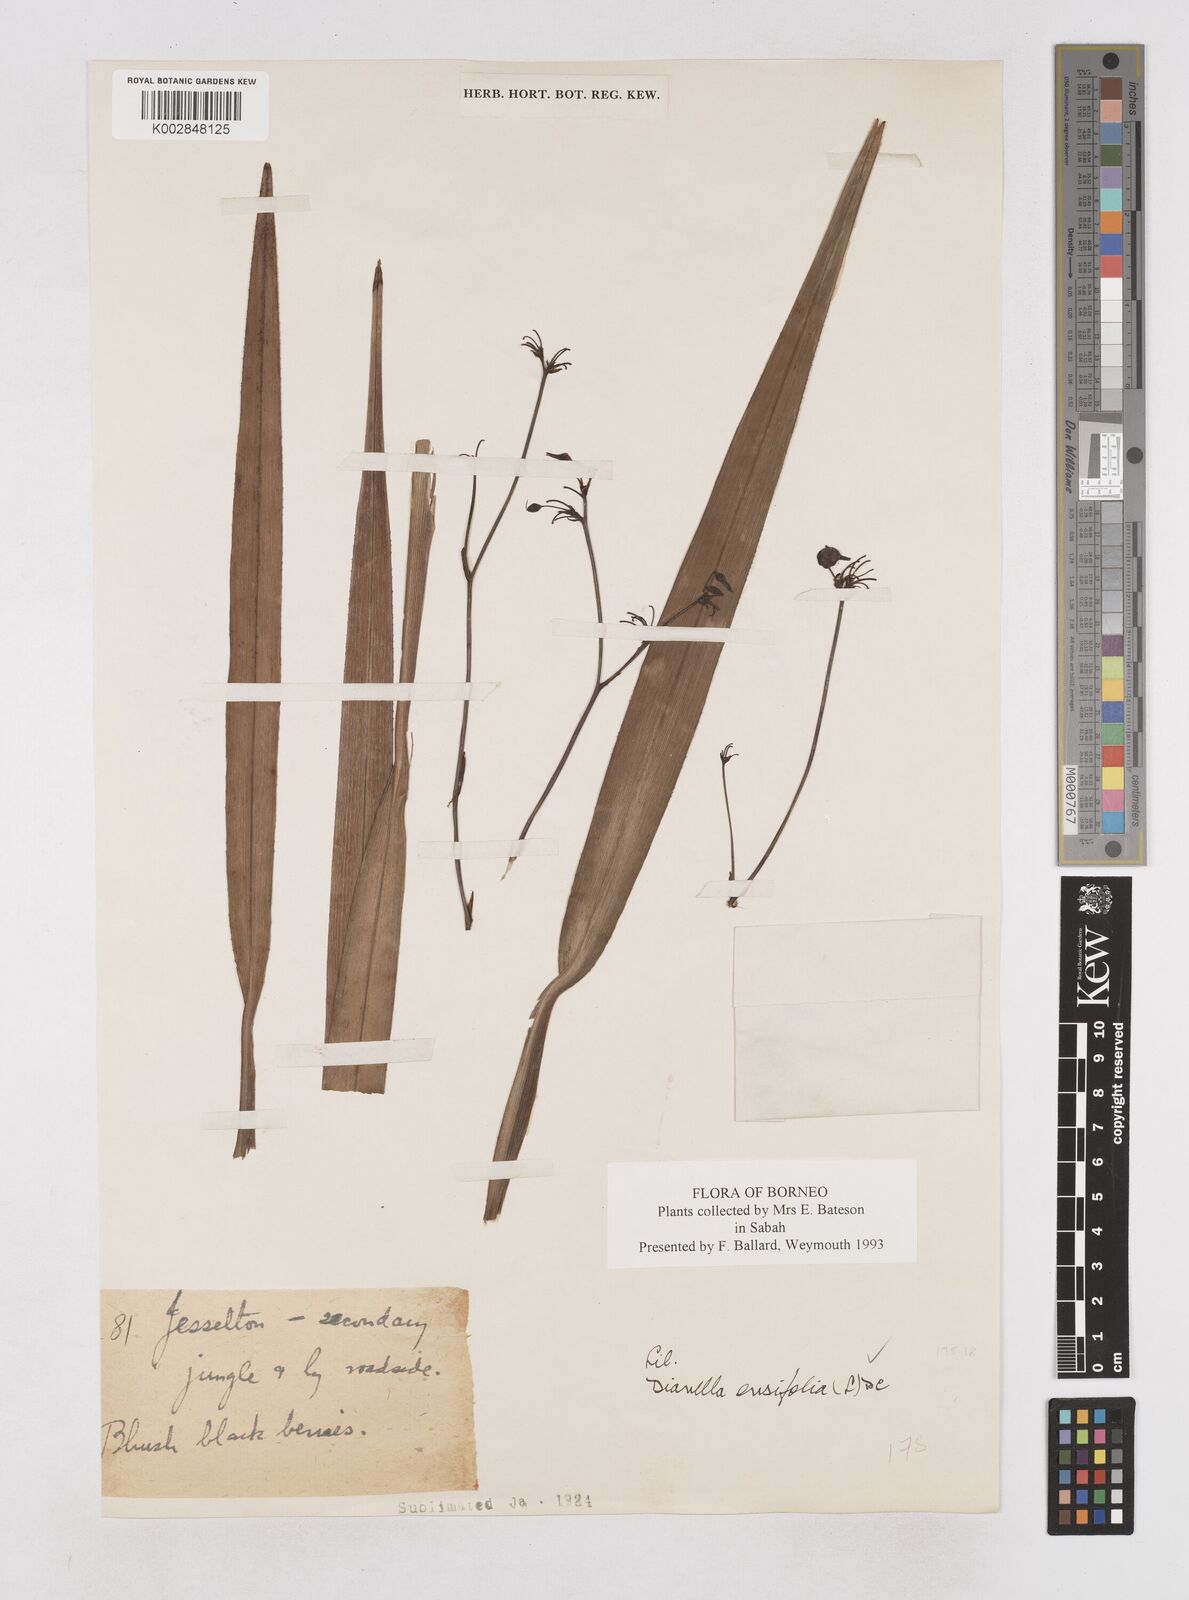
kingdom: Plantae
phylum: Tracheophyta
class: Liliopsida
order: Asparagales
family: Asphodelaceae
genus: Dianella
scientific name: Dianella ensifolia
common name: New zealand lilyplant
